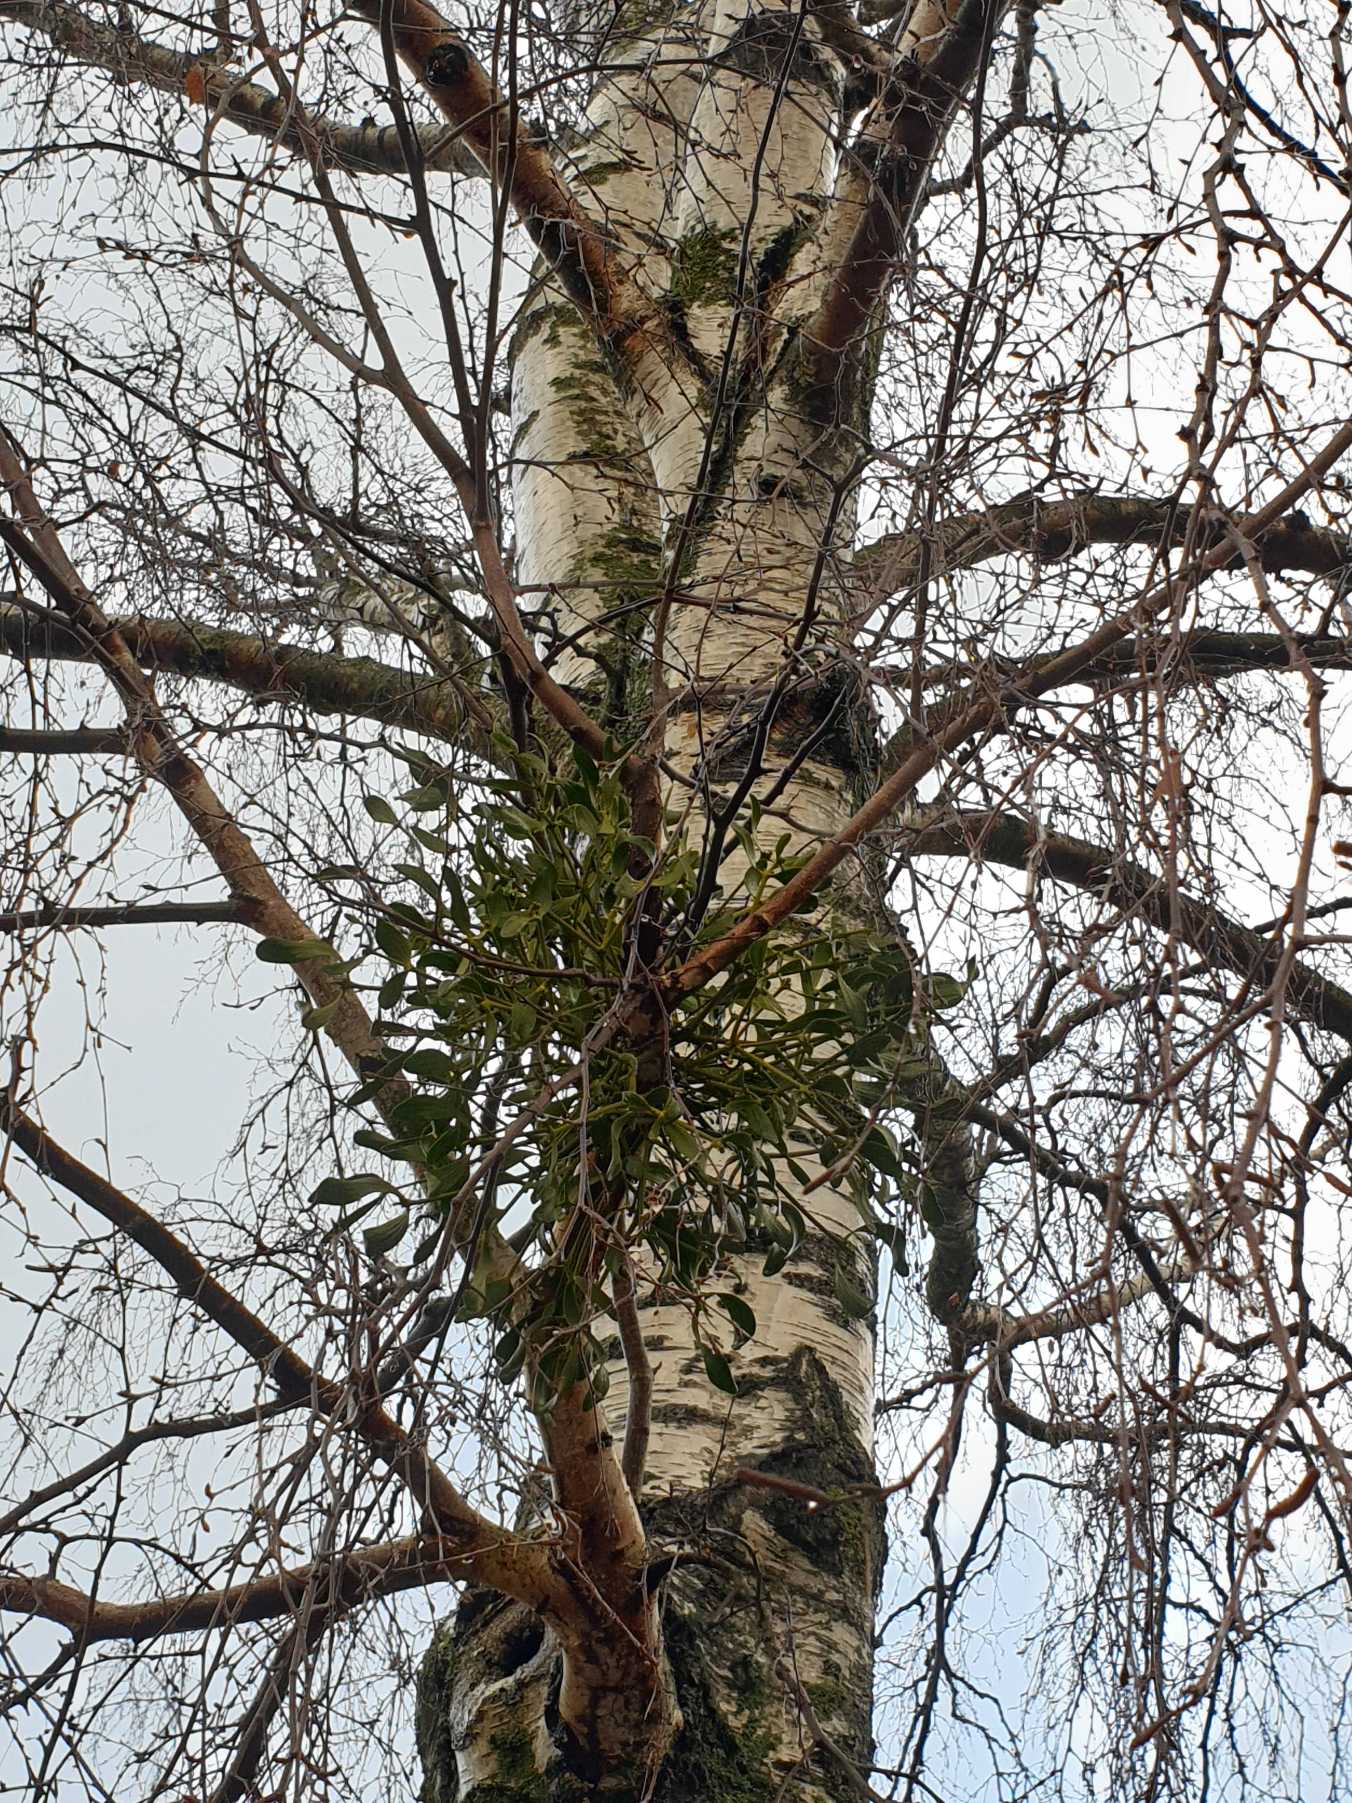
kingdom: Plantae
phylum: Tracheophyta
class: Magnoliopsida
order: Santalales
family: Viscaceae
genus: Viscum
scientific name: Viscum album
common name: Mistelten
